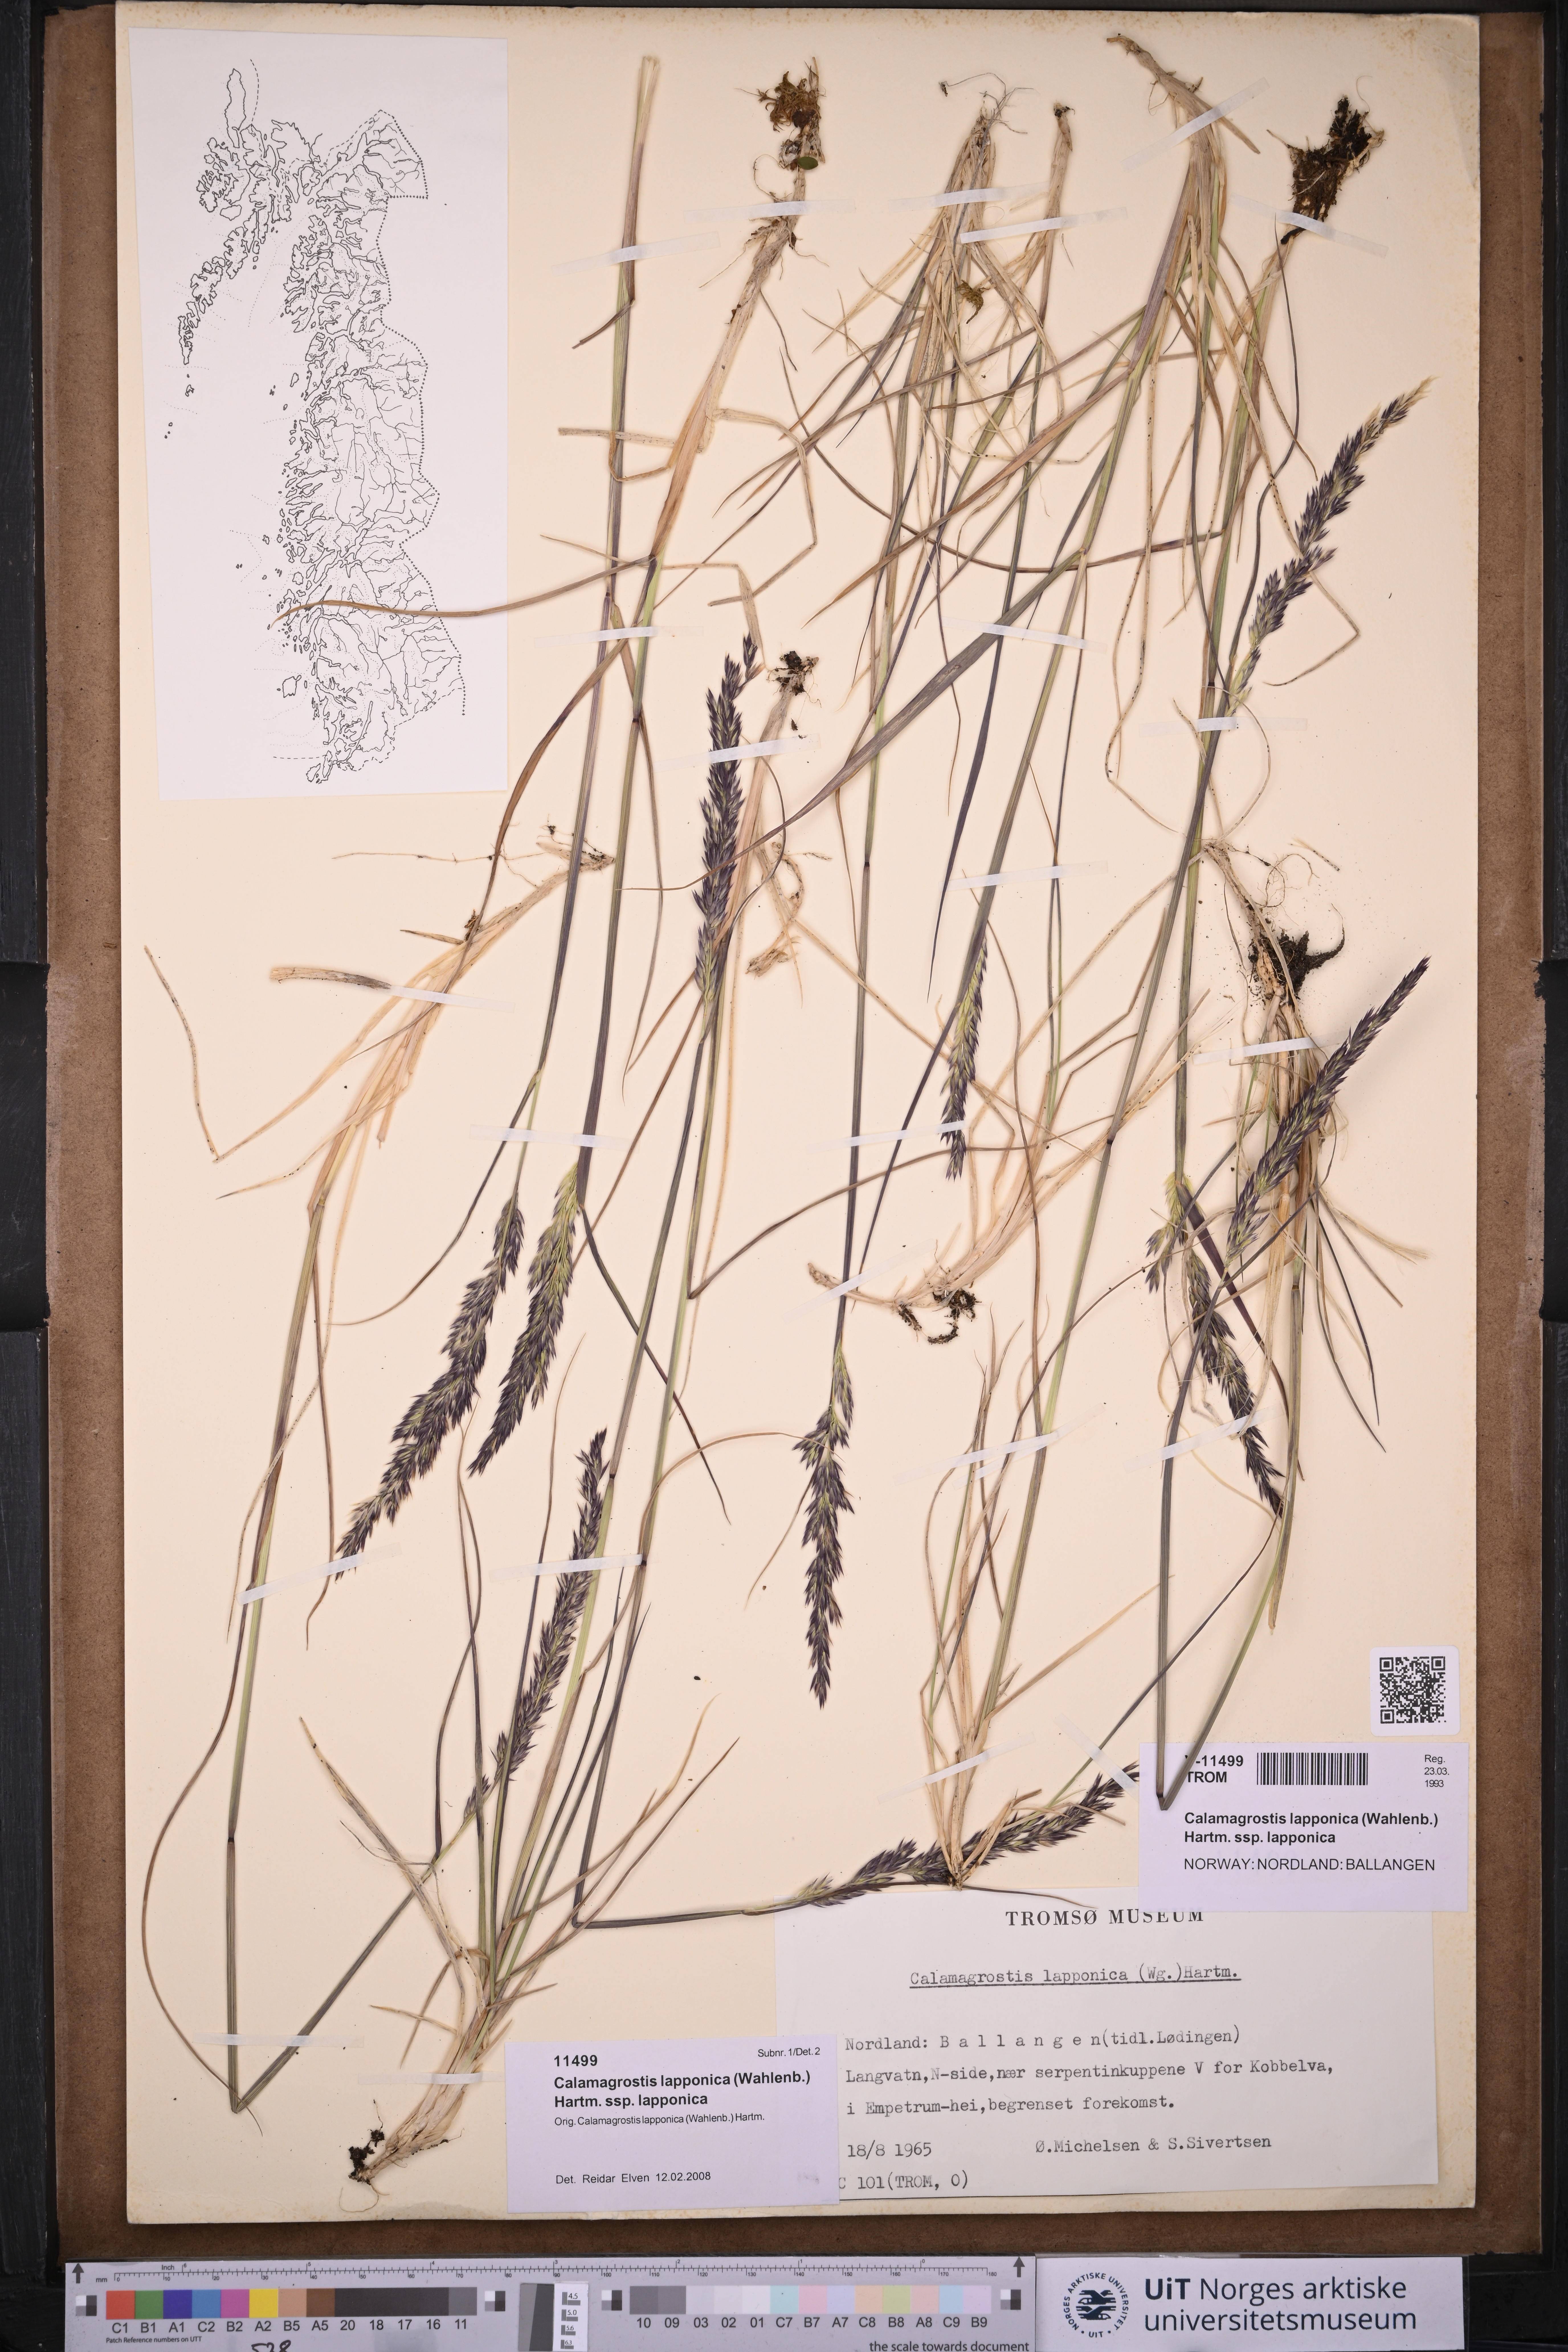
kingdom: Plantae
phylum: Tracheophyta
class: Liliopsida
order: Poales
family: Poaceae
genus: Calamagrostis
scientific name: Calamagrostis lapponica
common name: Lapland reedgrass
